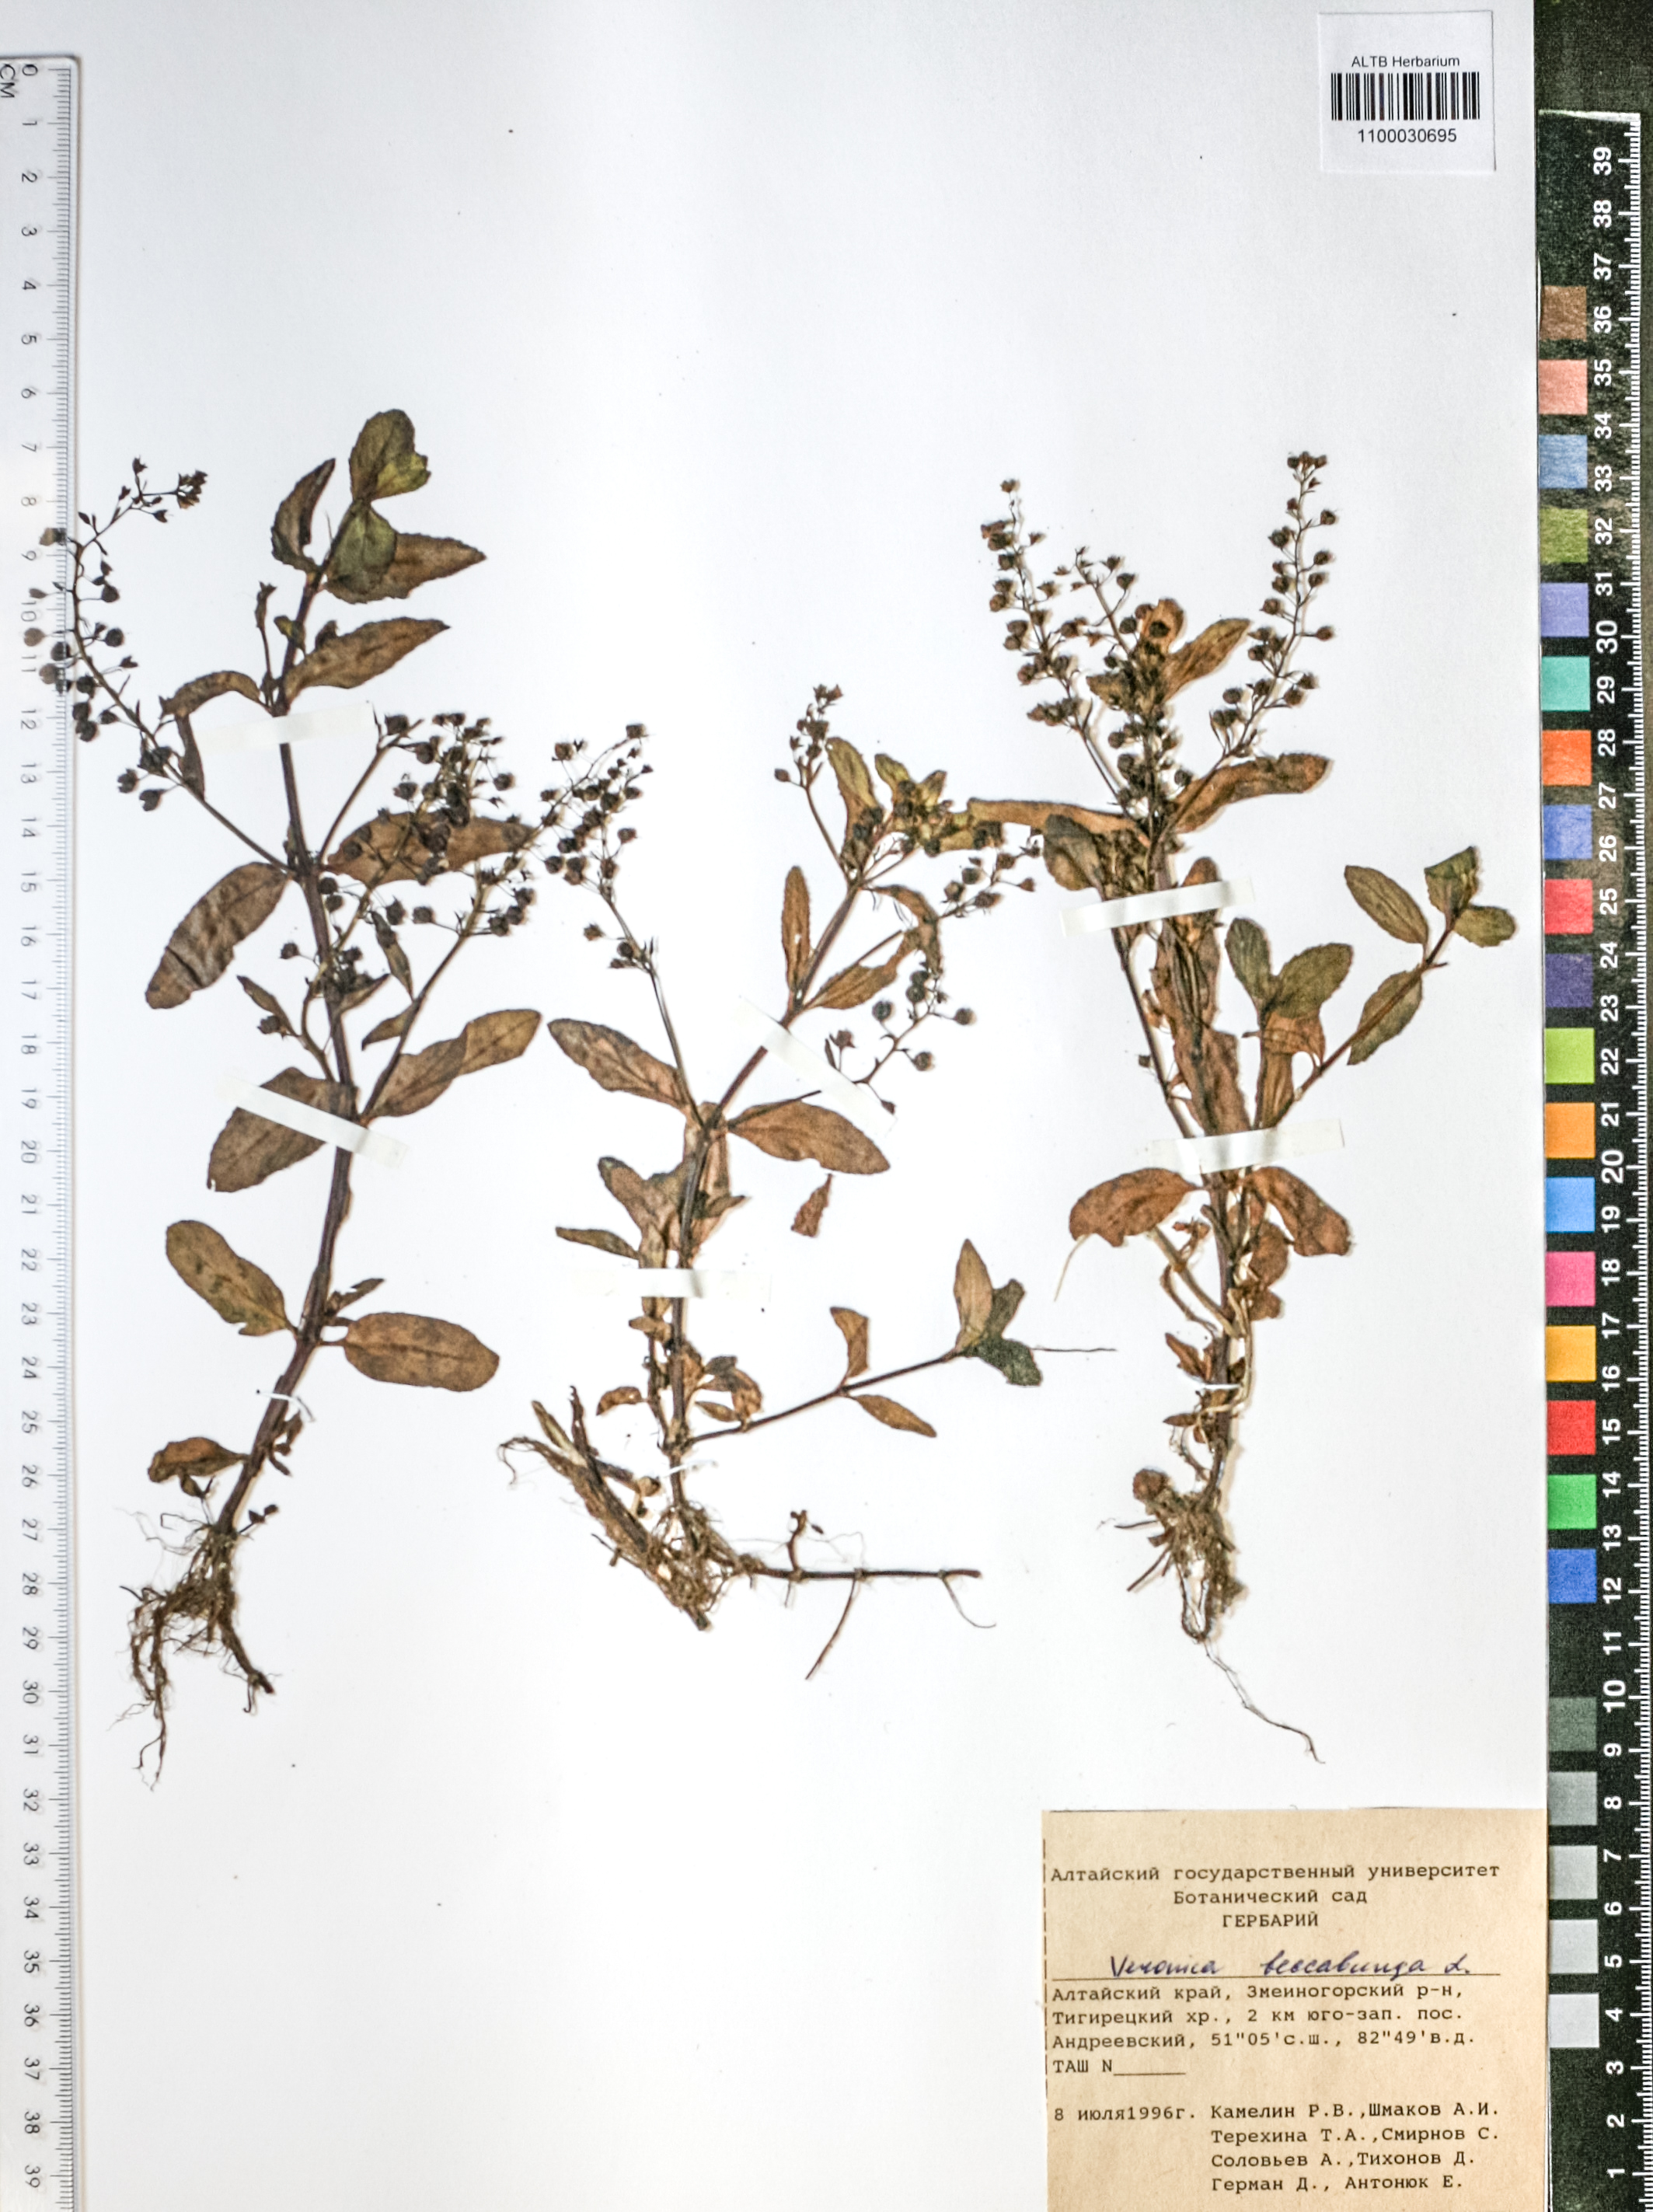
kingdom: Plantae
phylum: Tracheophyta
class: Magnoliopsida
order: Lamiales
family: Plantaginaceae
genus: Veronica
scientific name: Veronica beccabunga
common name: Brooklime
